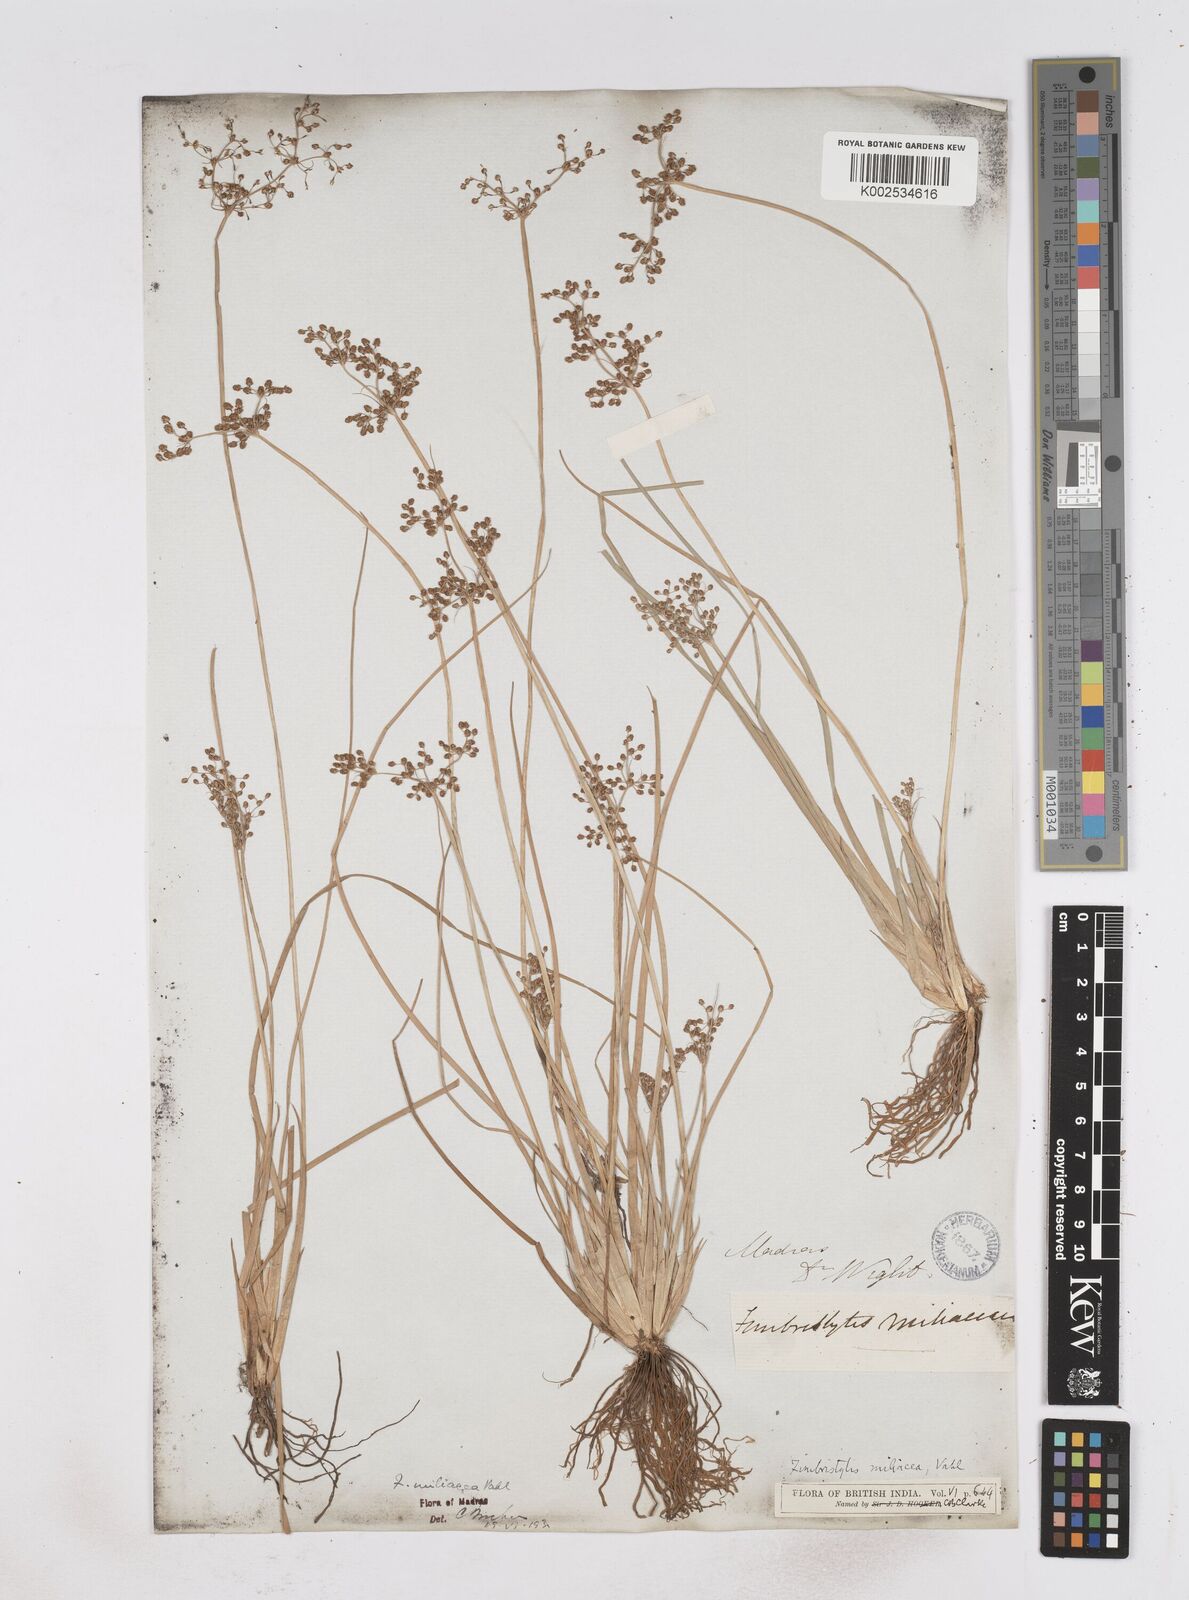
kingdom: Plantae
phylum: Tracheophyta
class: Liliopsida
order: Poales
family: Cyperaceae
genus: Fimbristylis
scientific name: Fimbristylis littoralis
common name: Fimbry
